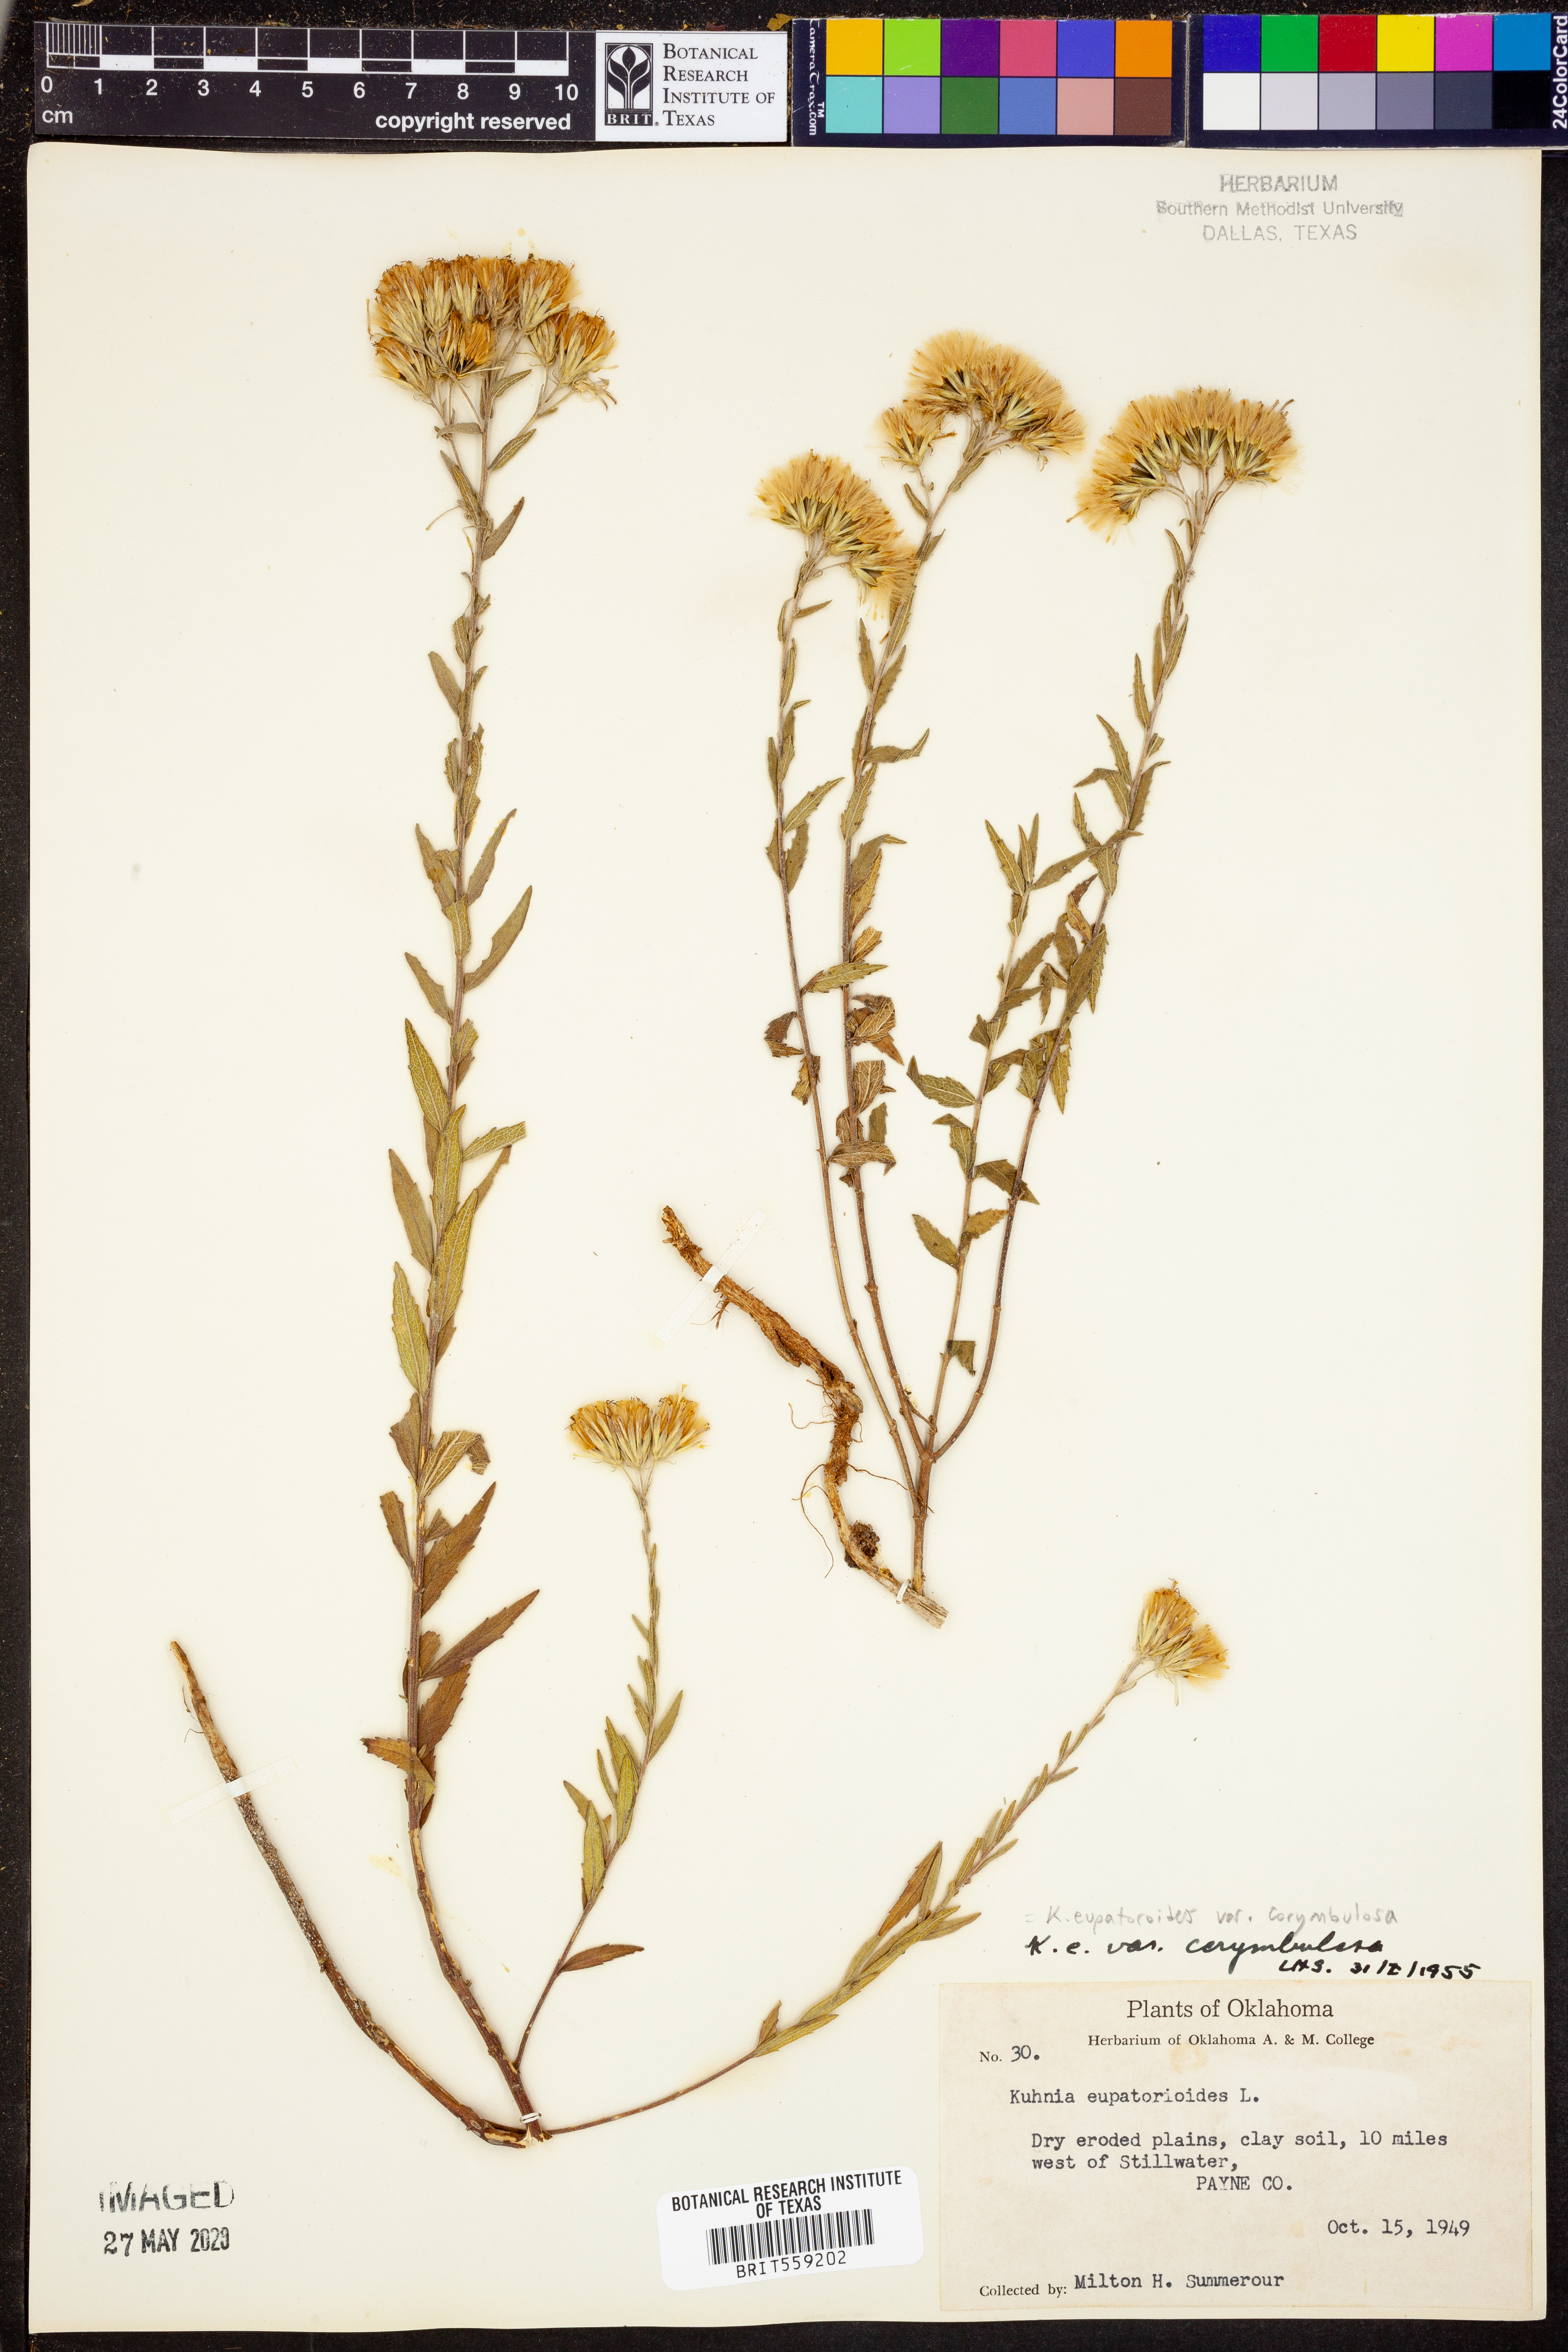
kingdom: Plantae
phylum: Tracheophyta
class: Magnoliopsida
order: Asterales
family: Asteraceae
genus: Brickellia
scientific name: Brickellia suaveolens
